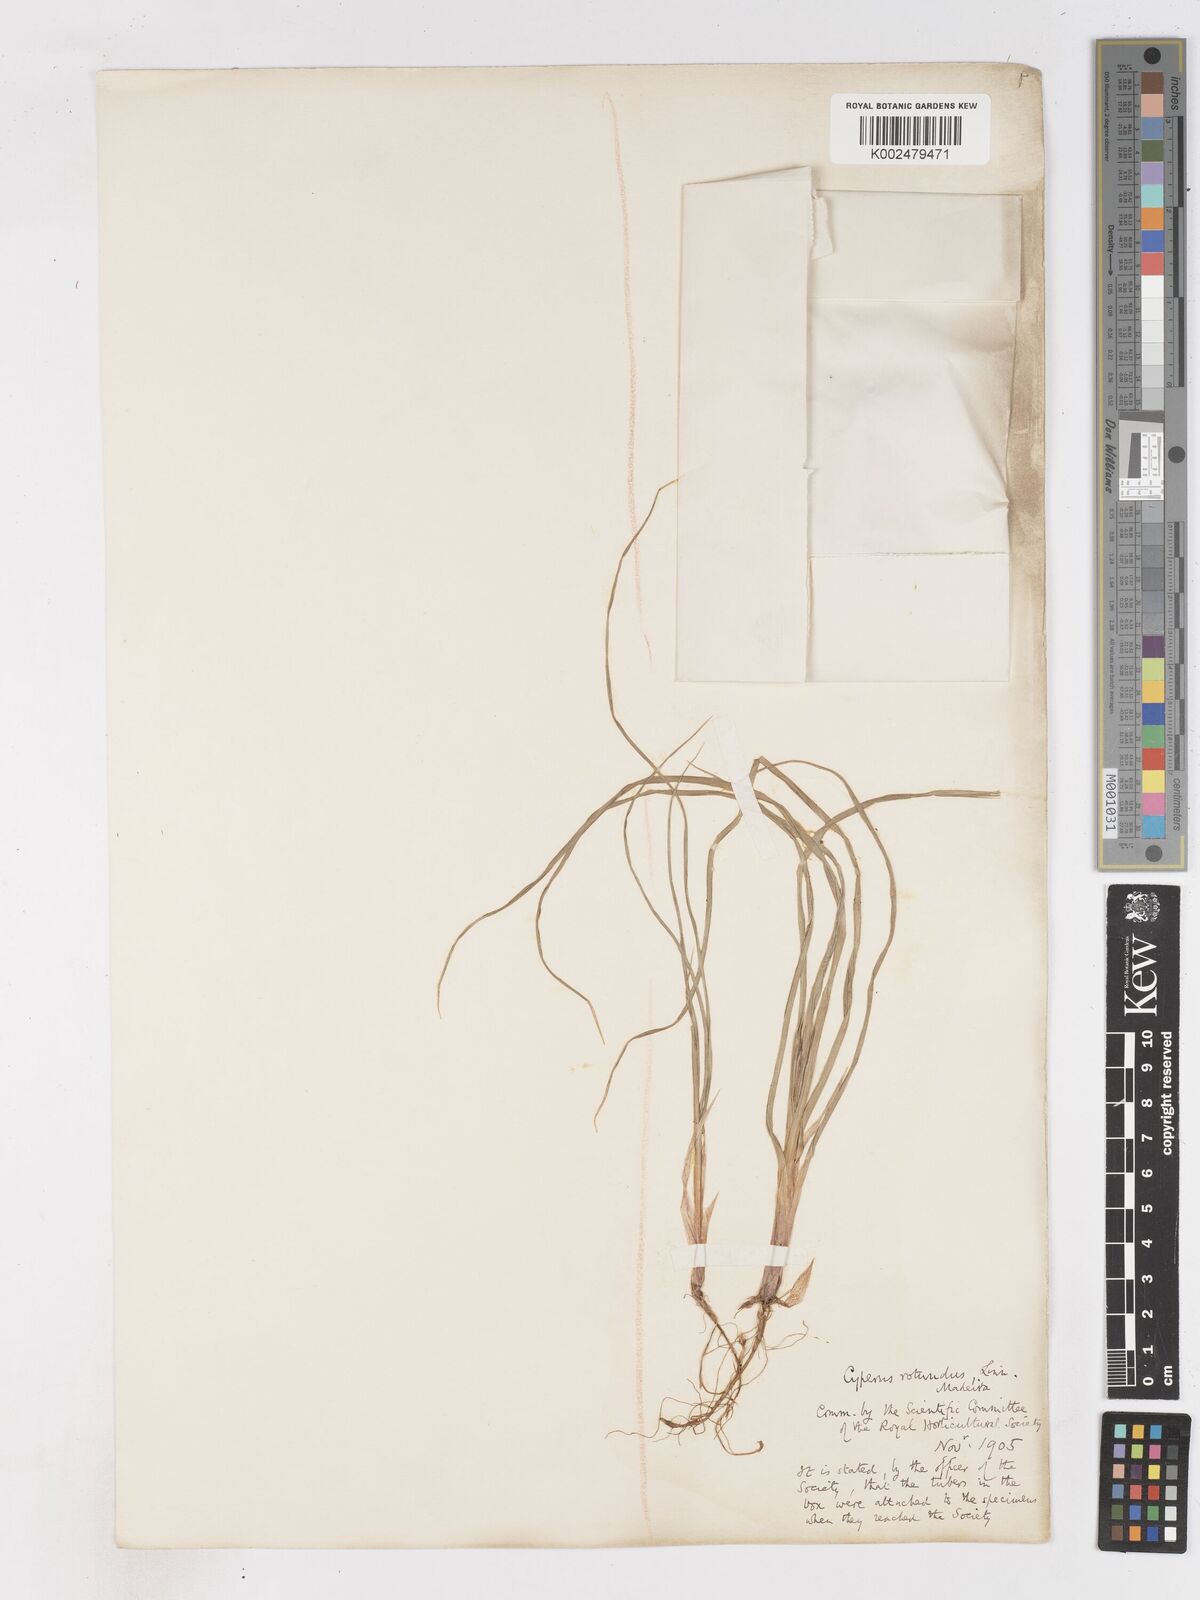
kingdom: Plantae
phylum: Tracheophyta
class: Liliopsida
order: Poales
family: Cyperaceae
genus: Cyperus
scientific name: Cyperus rotundus
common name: Nutgrass
